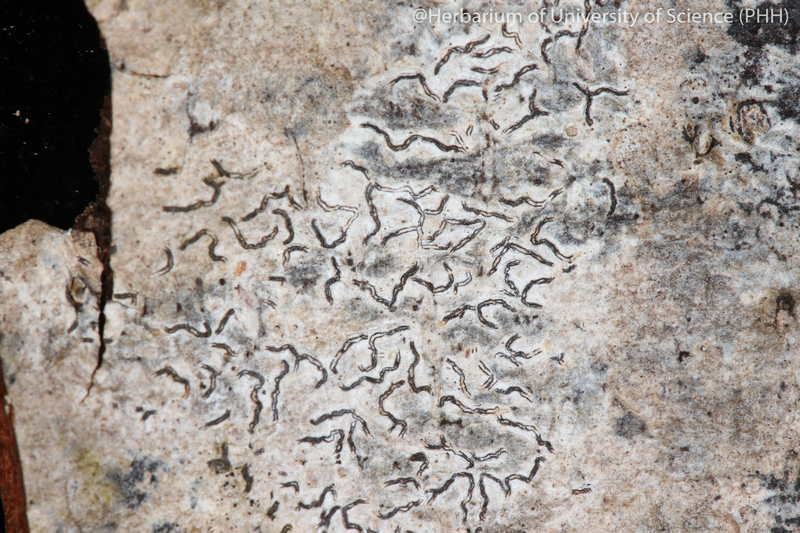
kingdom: Fungi
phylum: Ascomycota
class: Lecanoromycetes
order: Ostropales
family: Graphidaceae
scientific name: Graphidaceae
